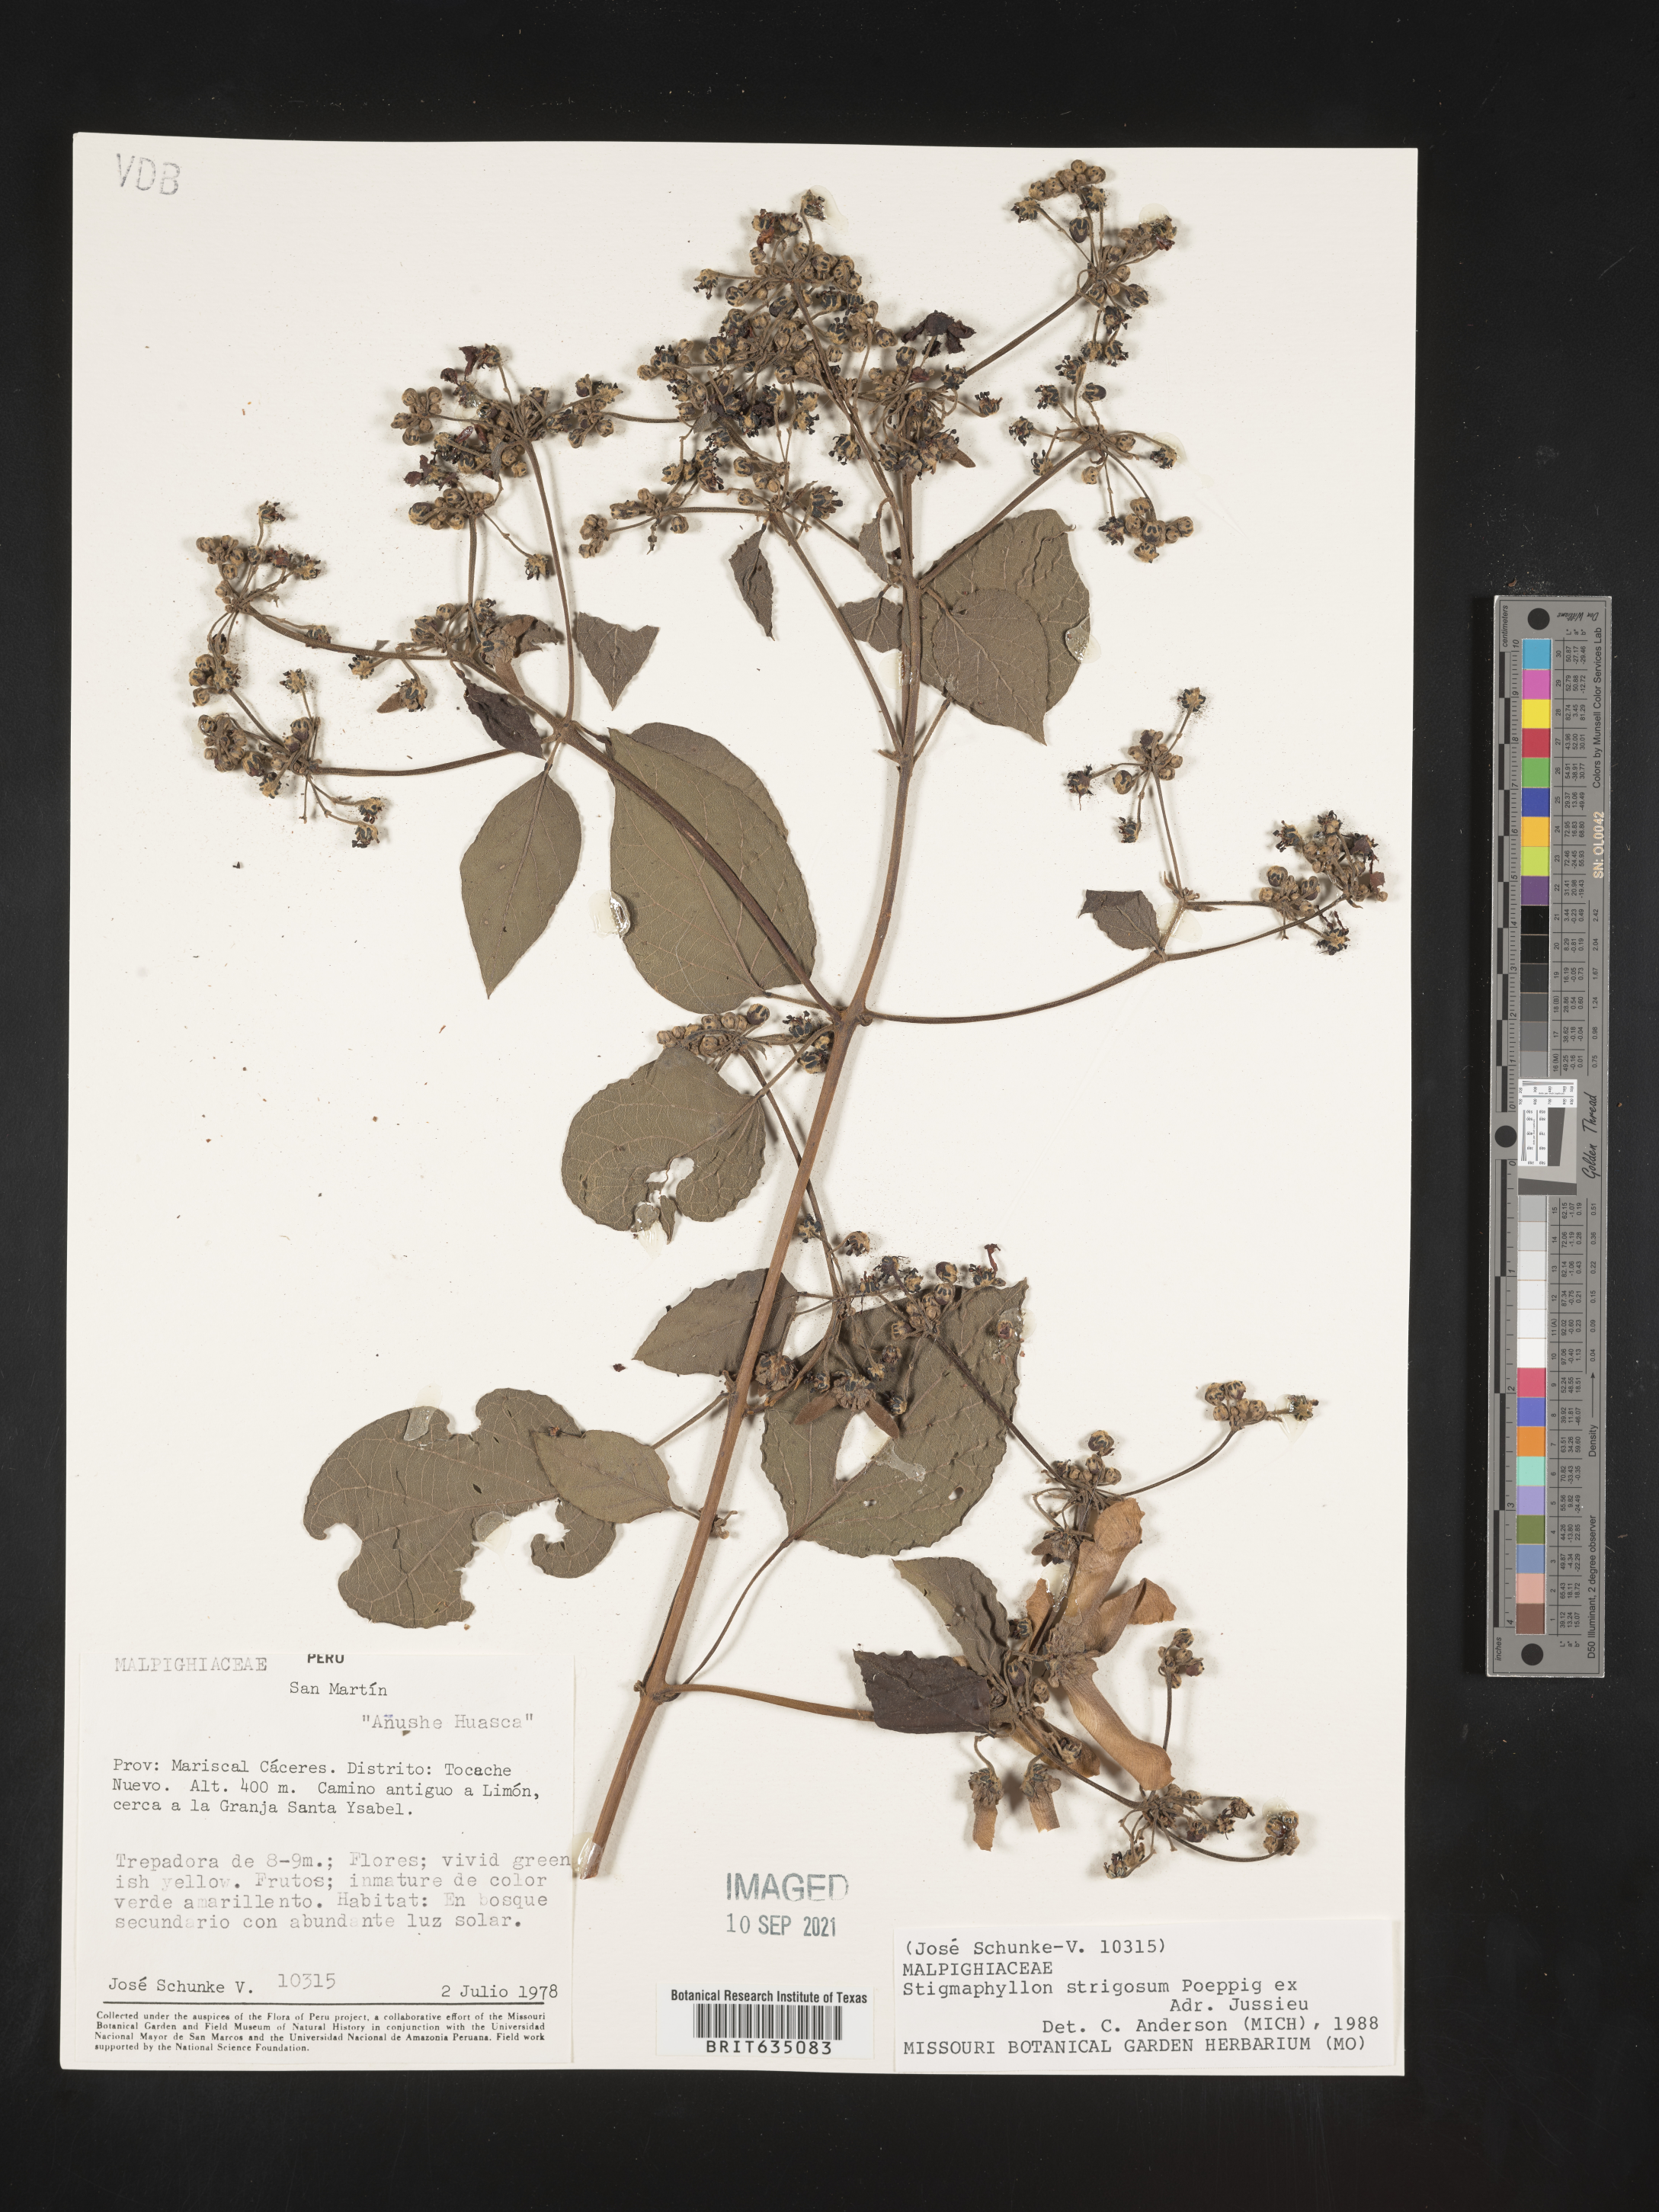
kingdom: Plantae
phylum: Tracheophyta
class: Magnoliopsida
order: Malpighiales
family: Malpighiaceae
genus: Stigmaphyllon
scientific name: Stigmaphyllon
